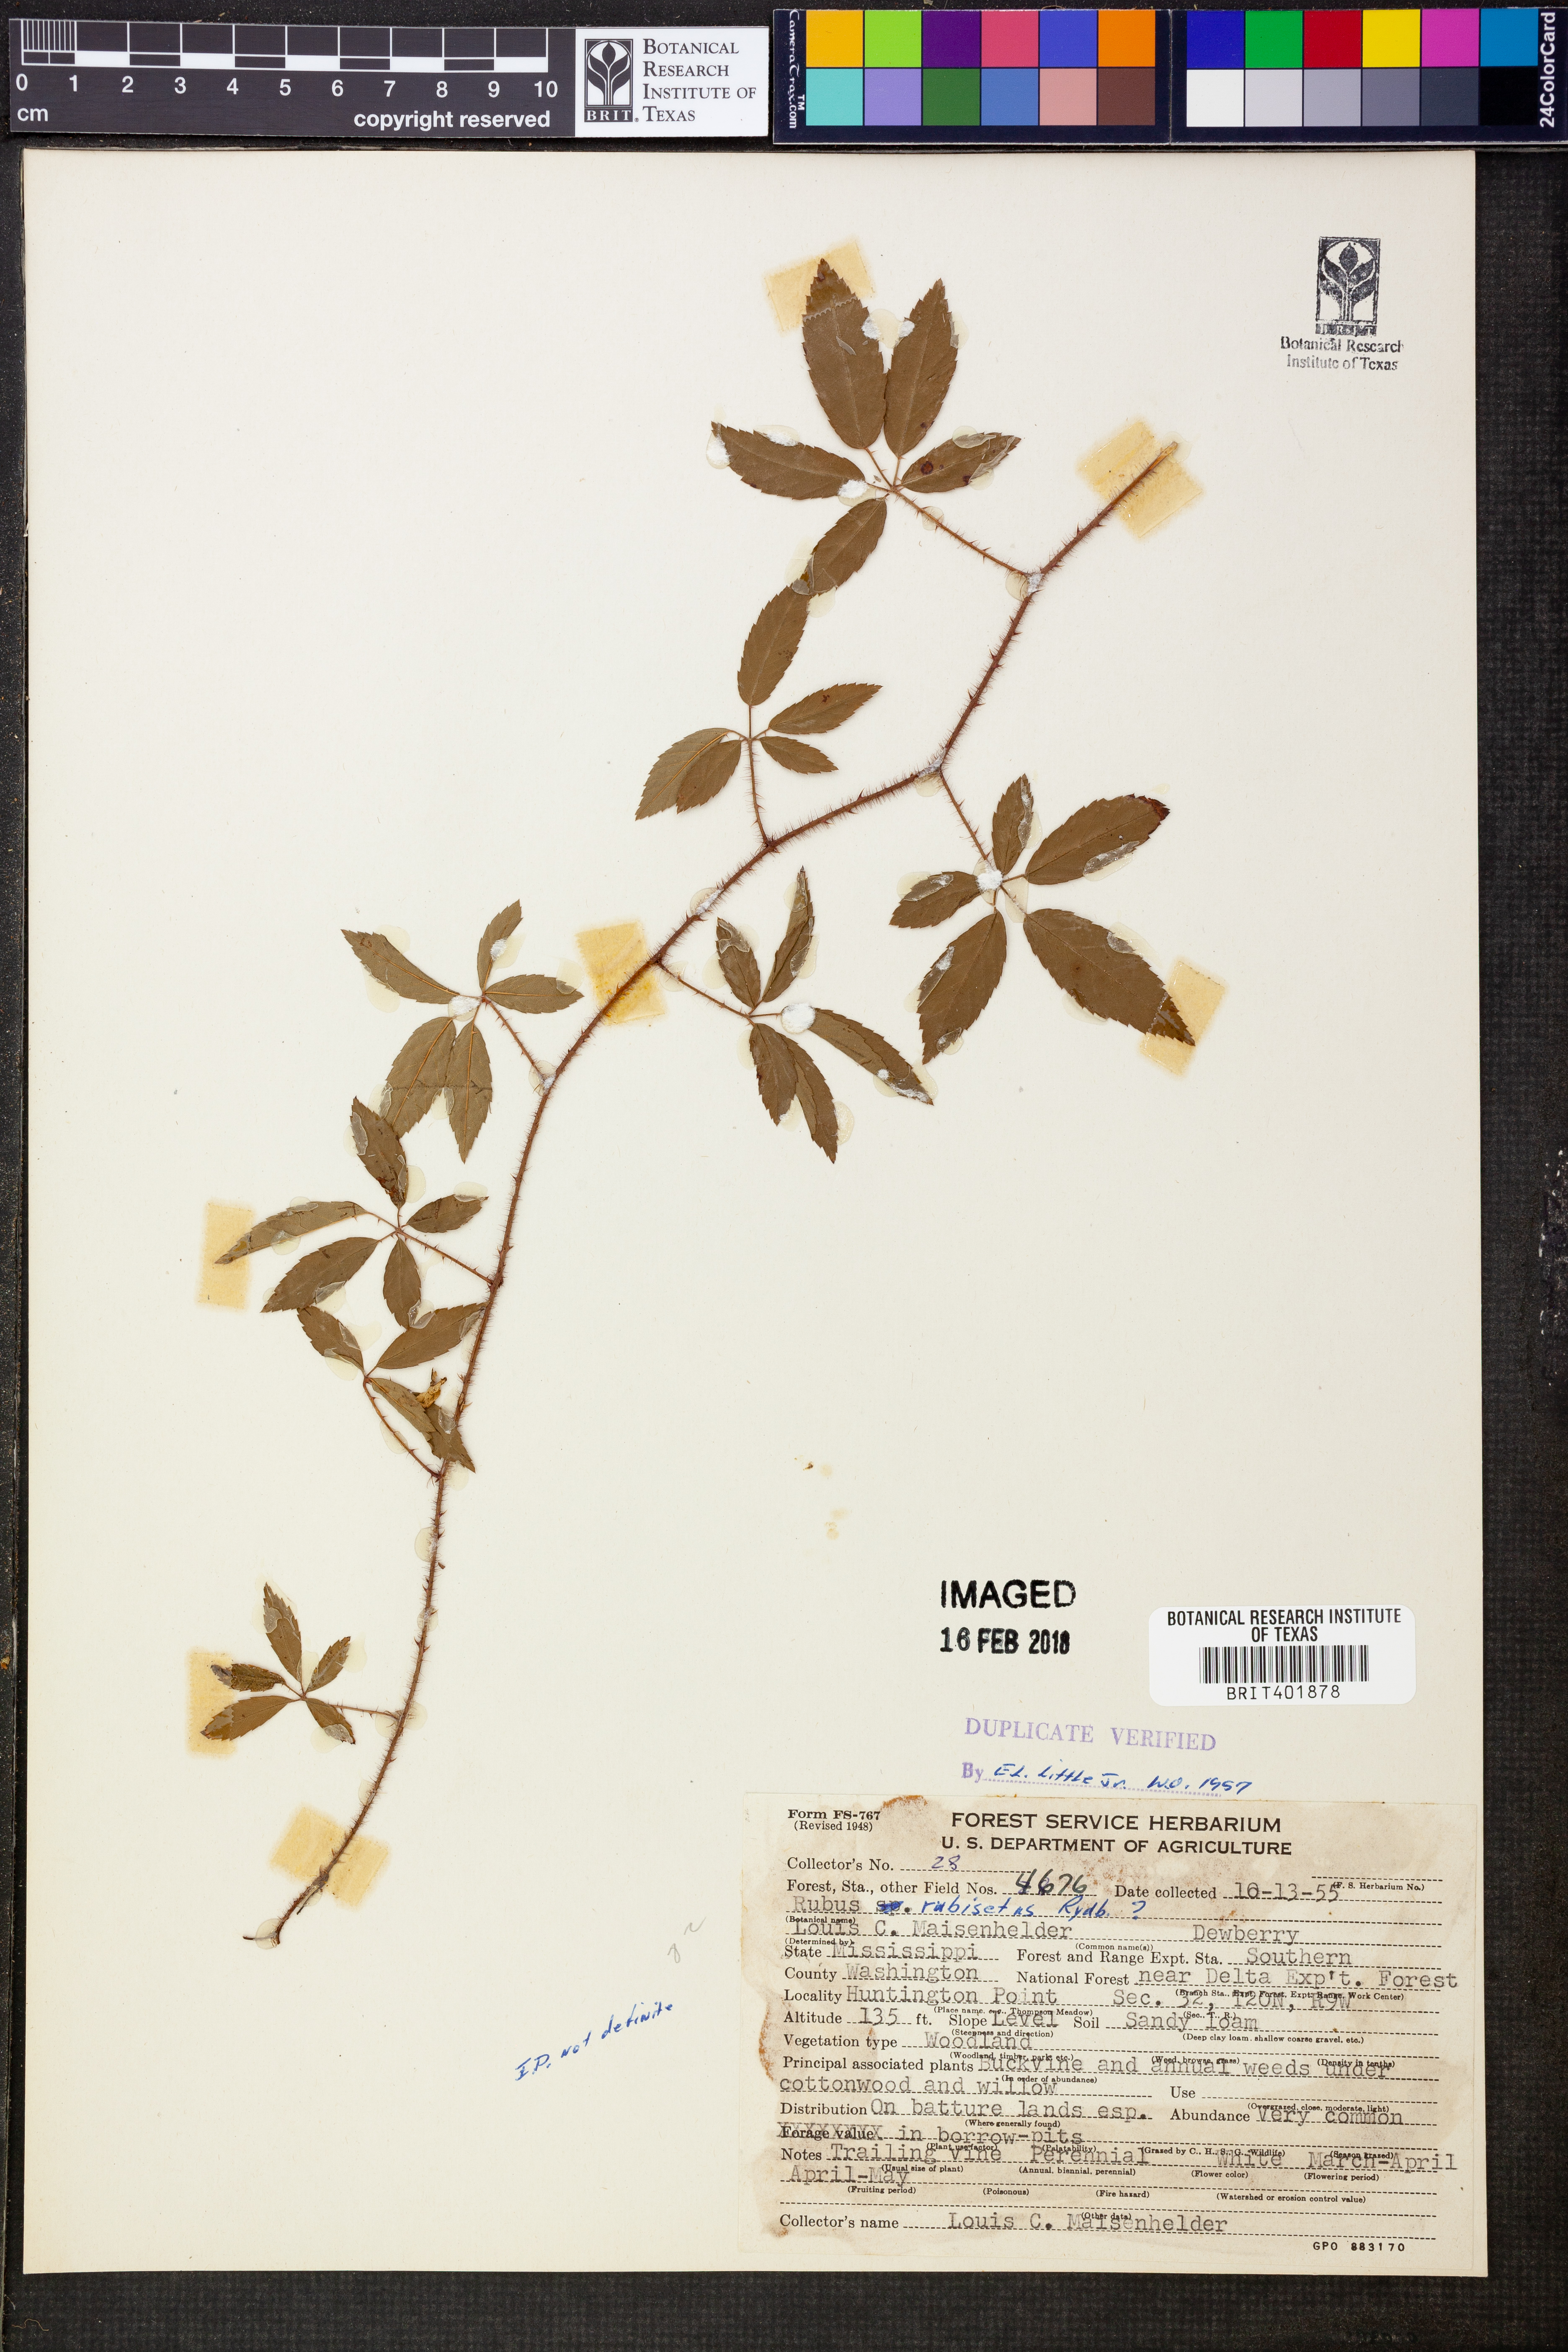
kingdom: Plantae
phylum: Tracheophyta
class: Magnoliopsida
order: Rosales
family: Rosaceae
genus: Rubus
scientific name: Rubus trivialis
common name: Southern dewberry
